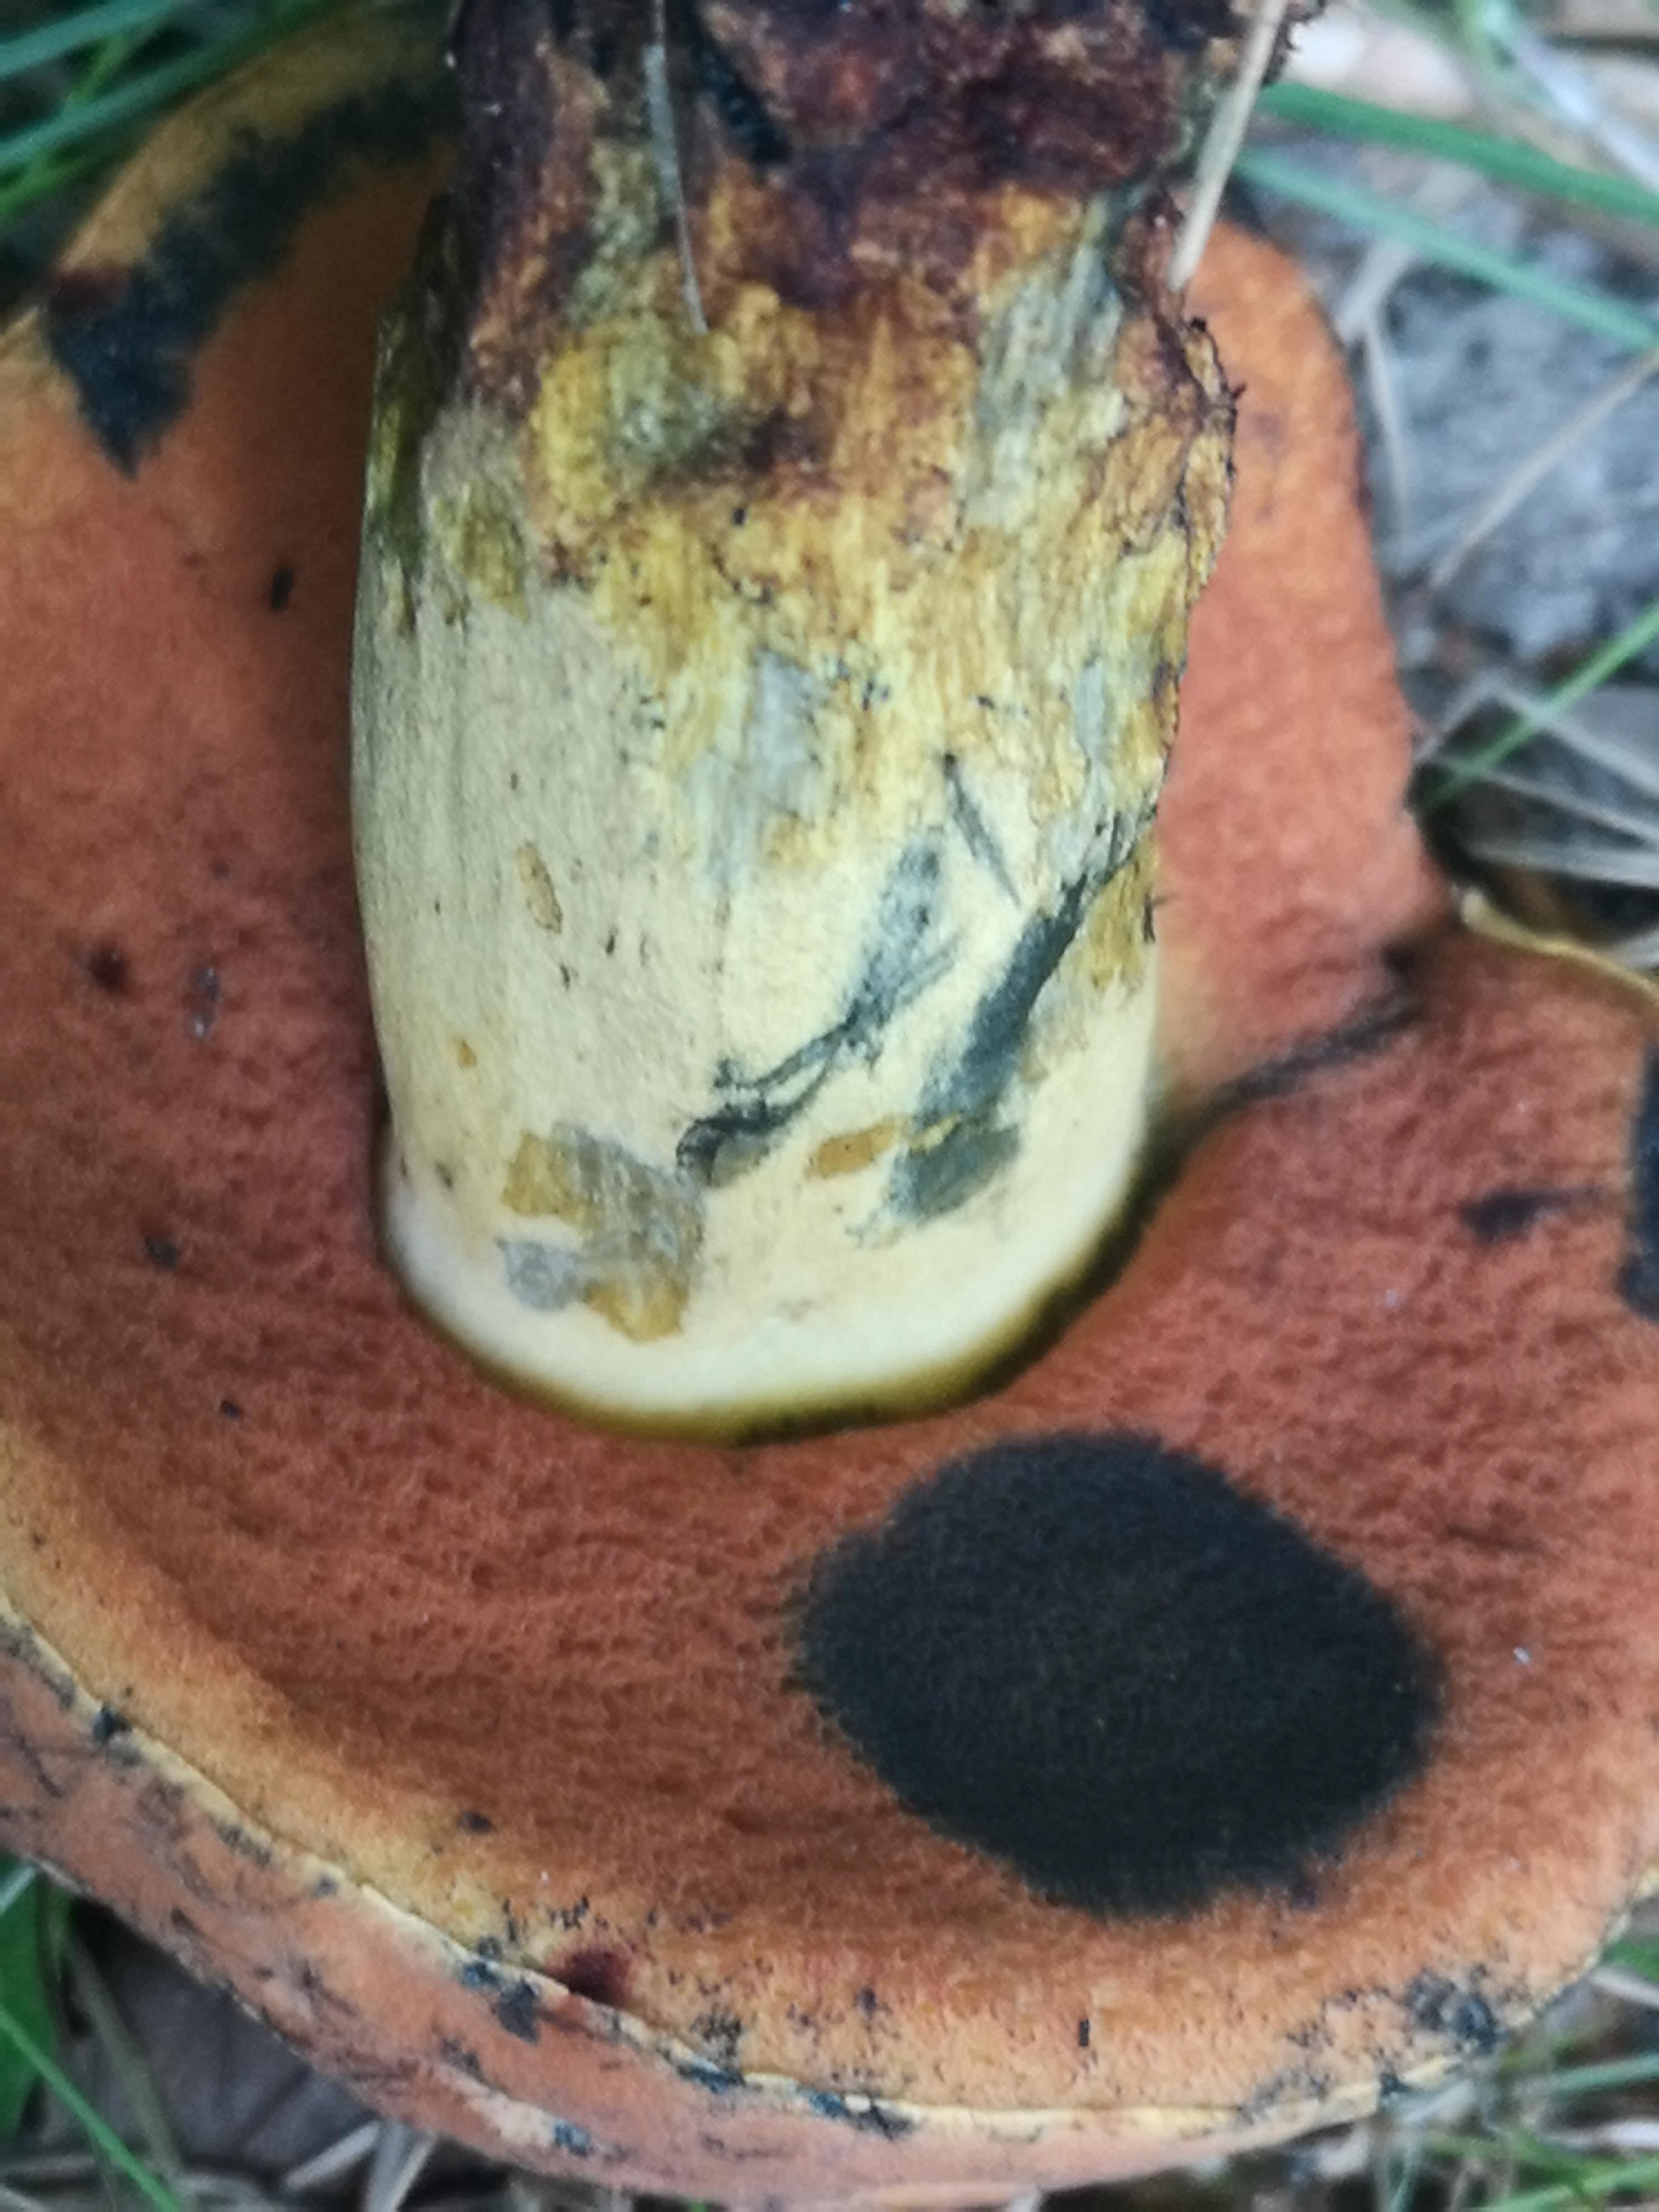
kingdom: Fungi
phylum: Basidiomycota
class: Agaricomycetes
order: Boletales
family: Boletaceae
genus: Suillellus
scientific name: Suillellus queletii
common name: glatstokket indigorørhat
